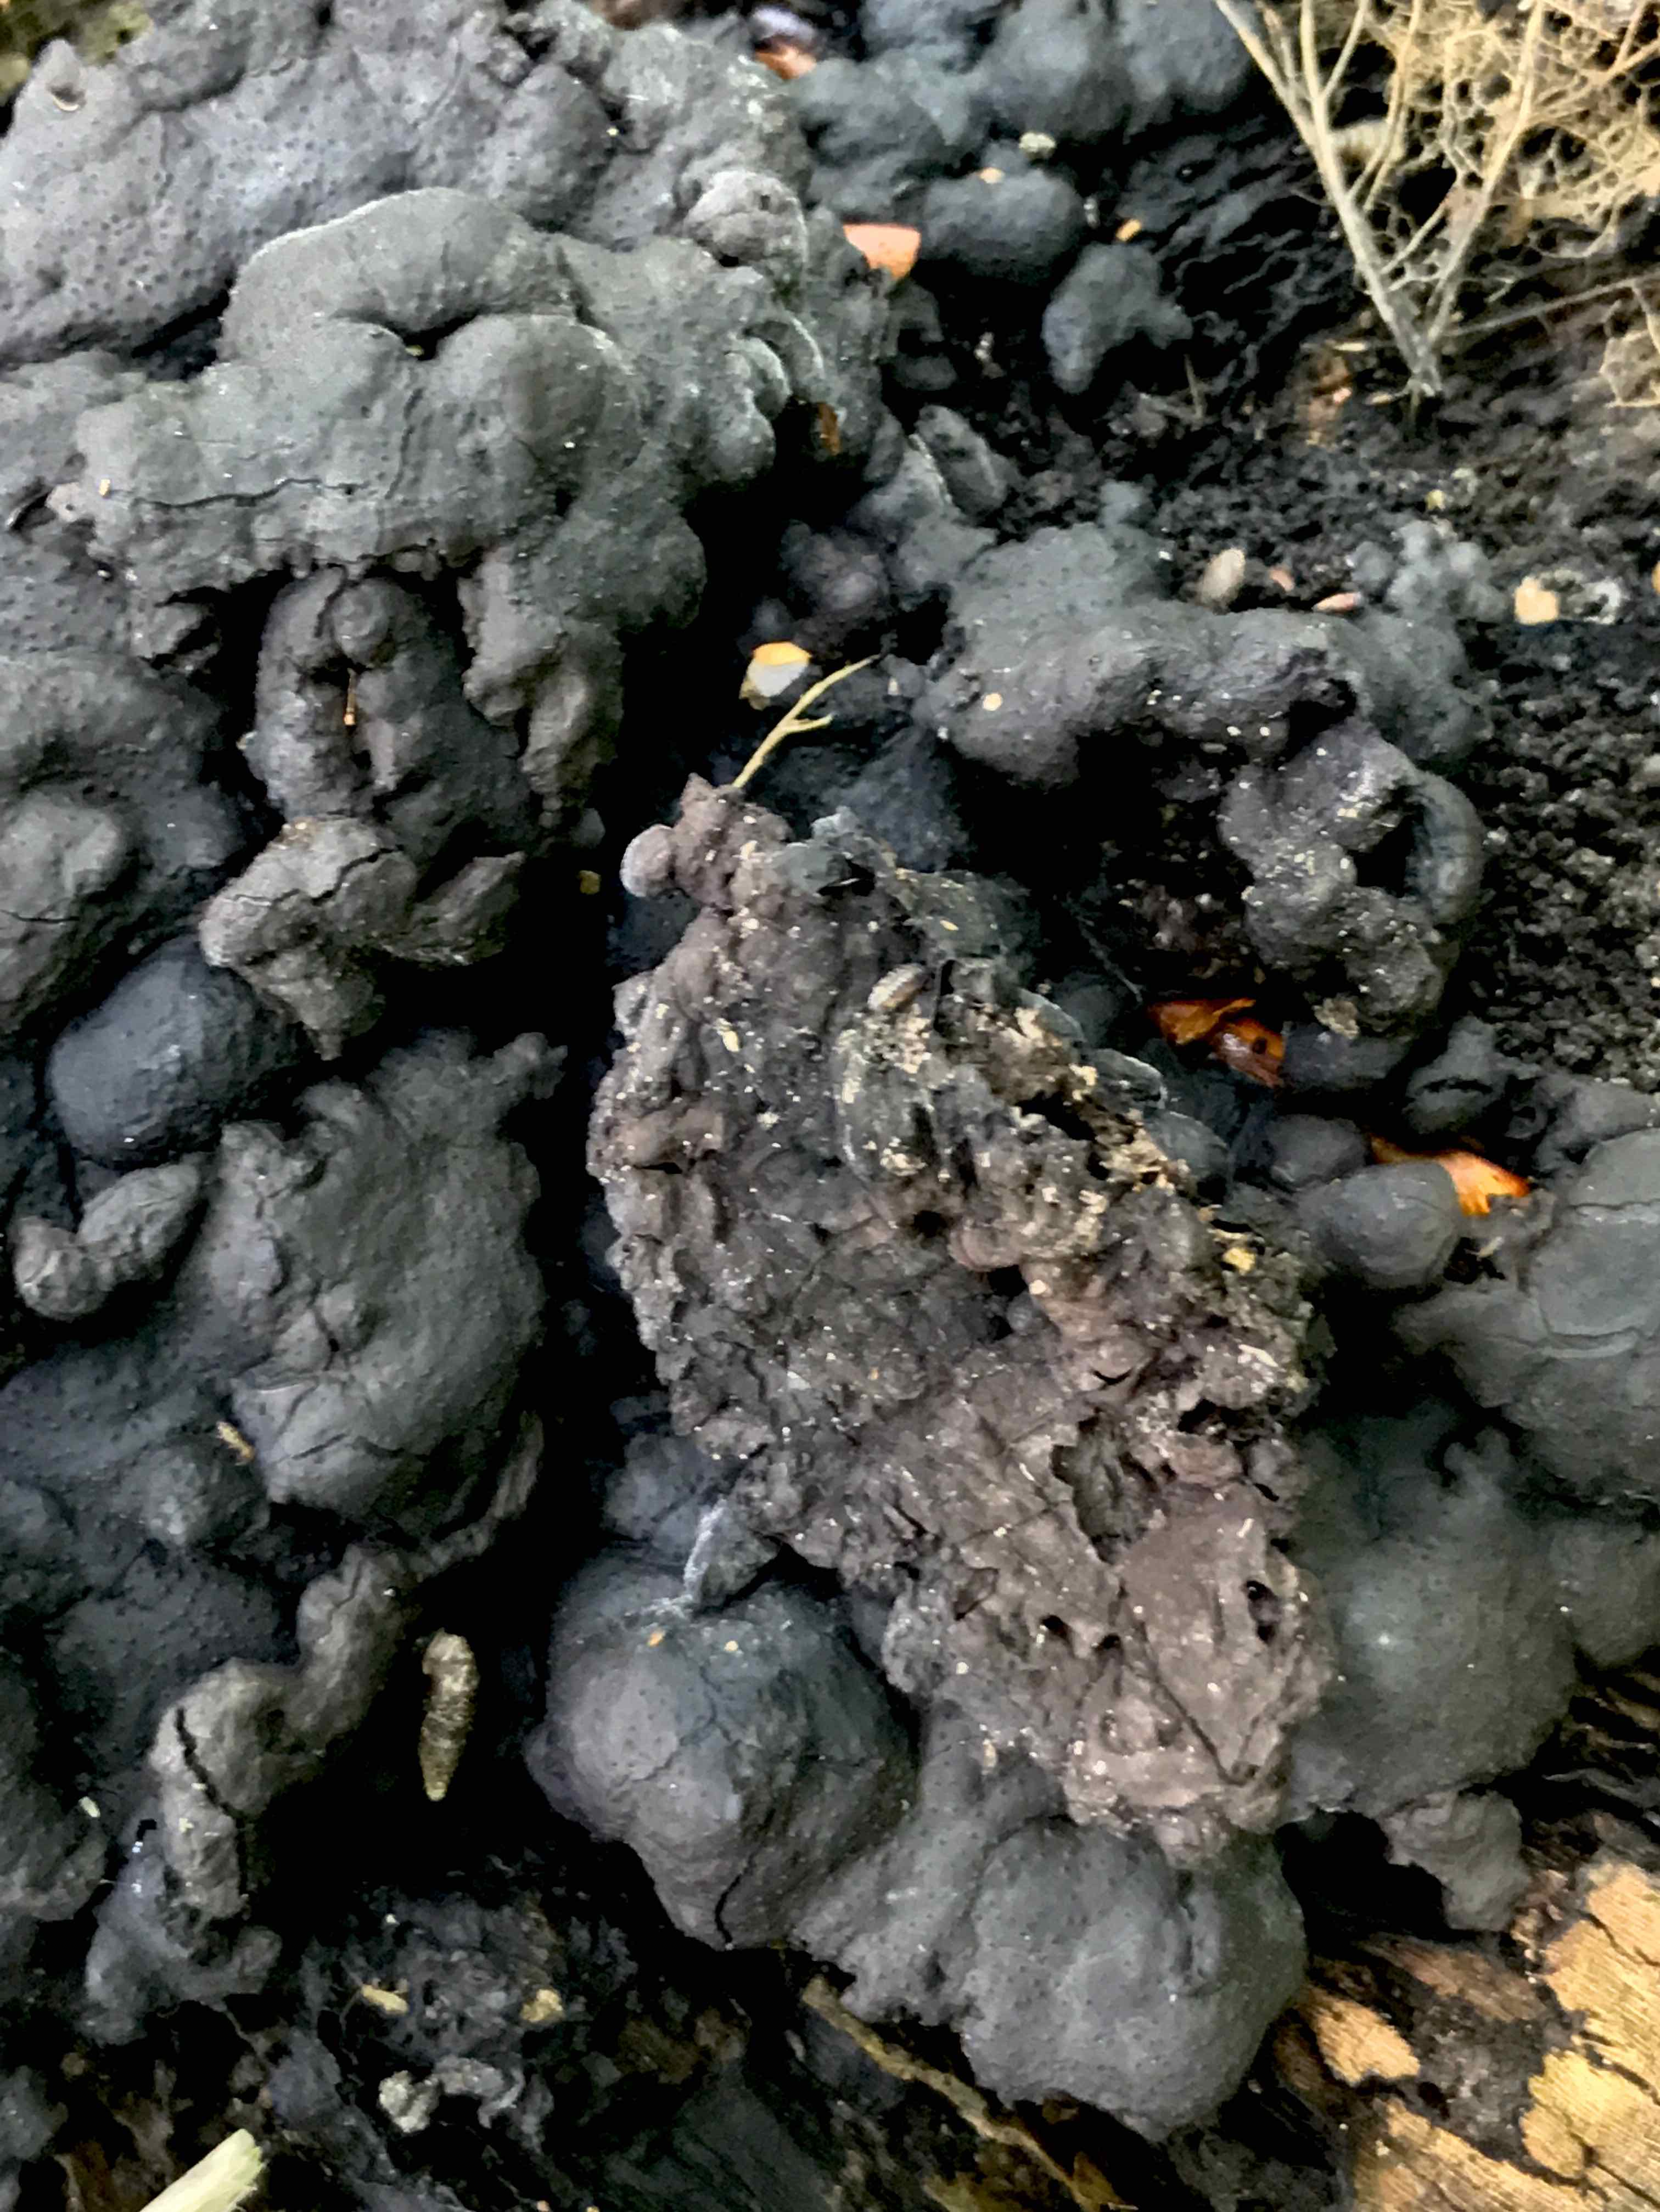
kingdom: Fungi
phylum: Ascomycota
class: Sordariomycetes
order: Xylariales
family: Xylariaceae
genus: Kretzschmaria
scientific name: Kretzschmaria deusta
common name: stor kulsvamp
